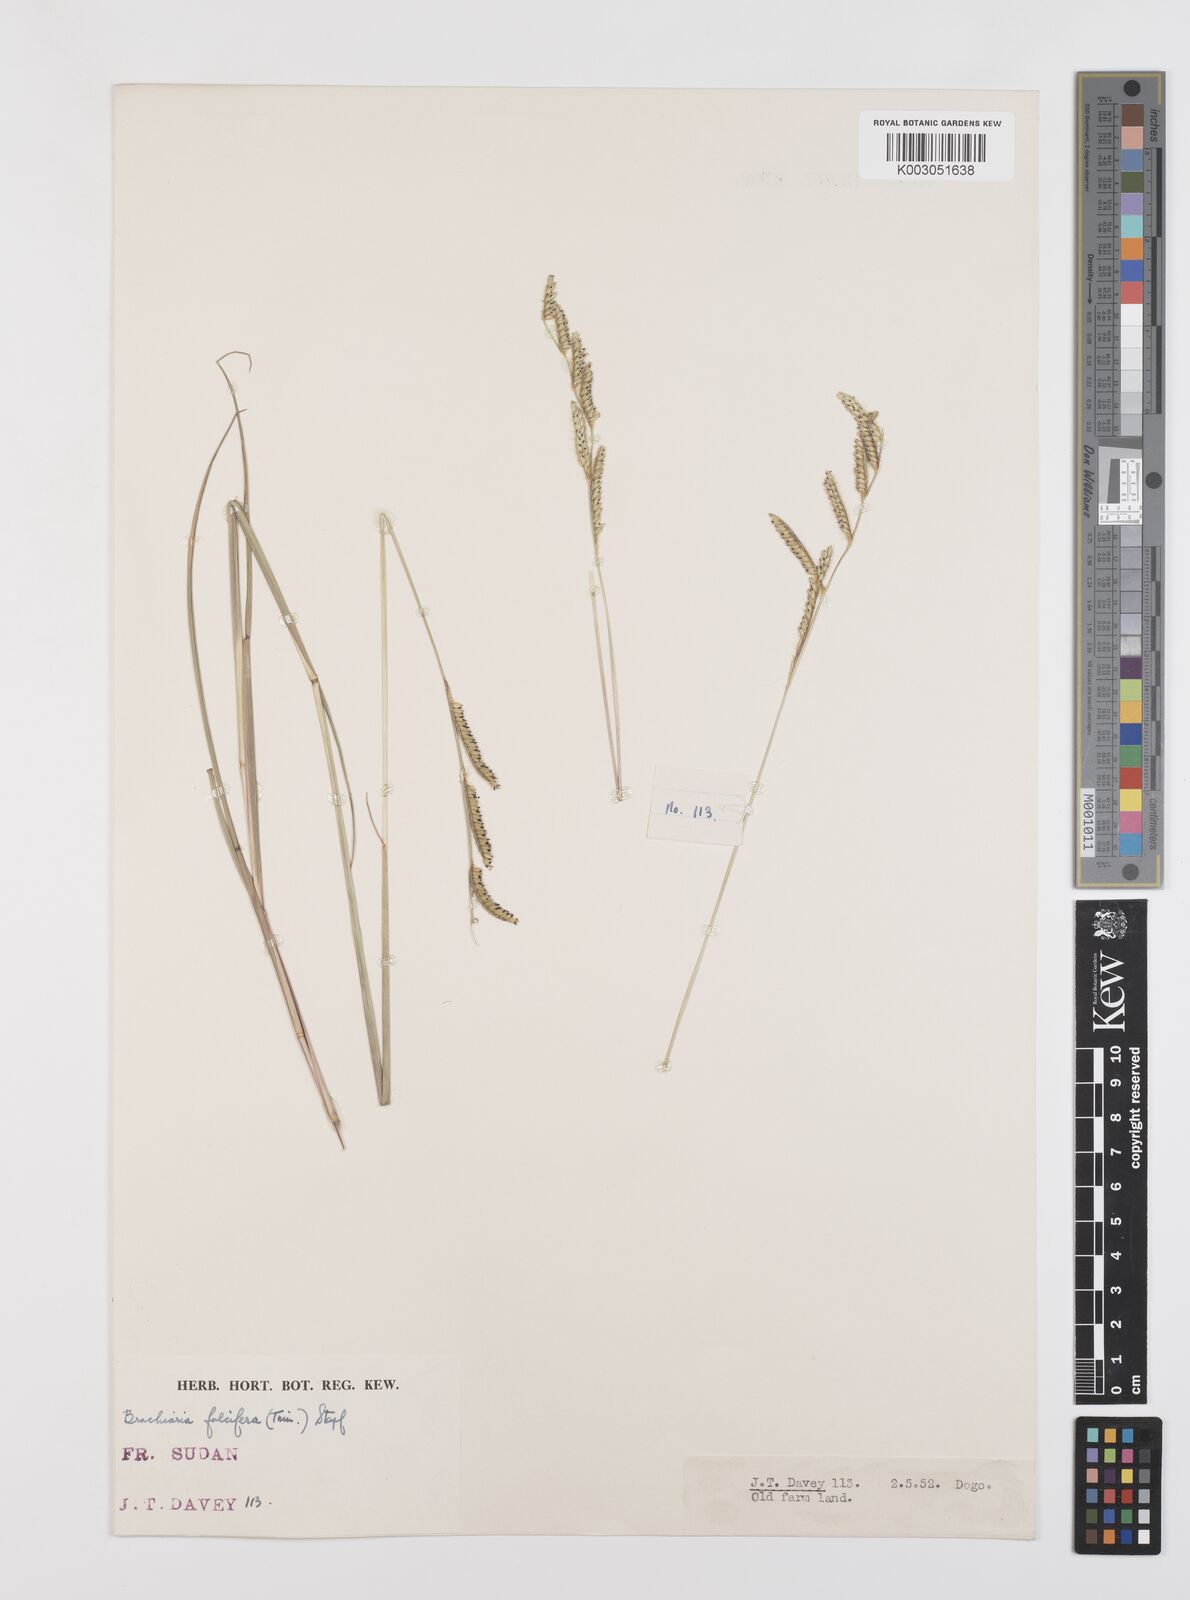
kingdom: Plantae
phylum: Tracheophyta
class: Liliopsida
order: Poales
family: Poaceae
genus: Urochloa
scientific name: Urochloa jubata
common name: Buffalograss
